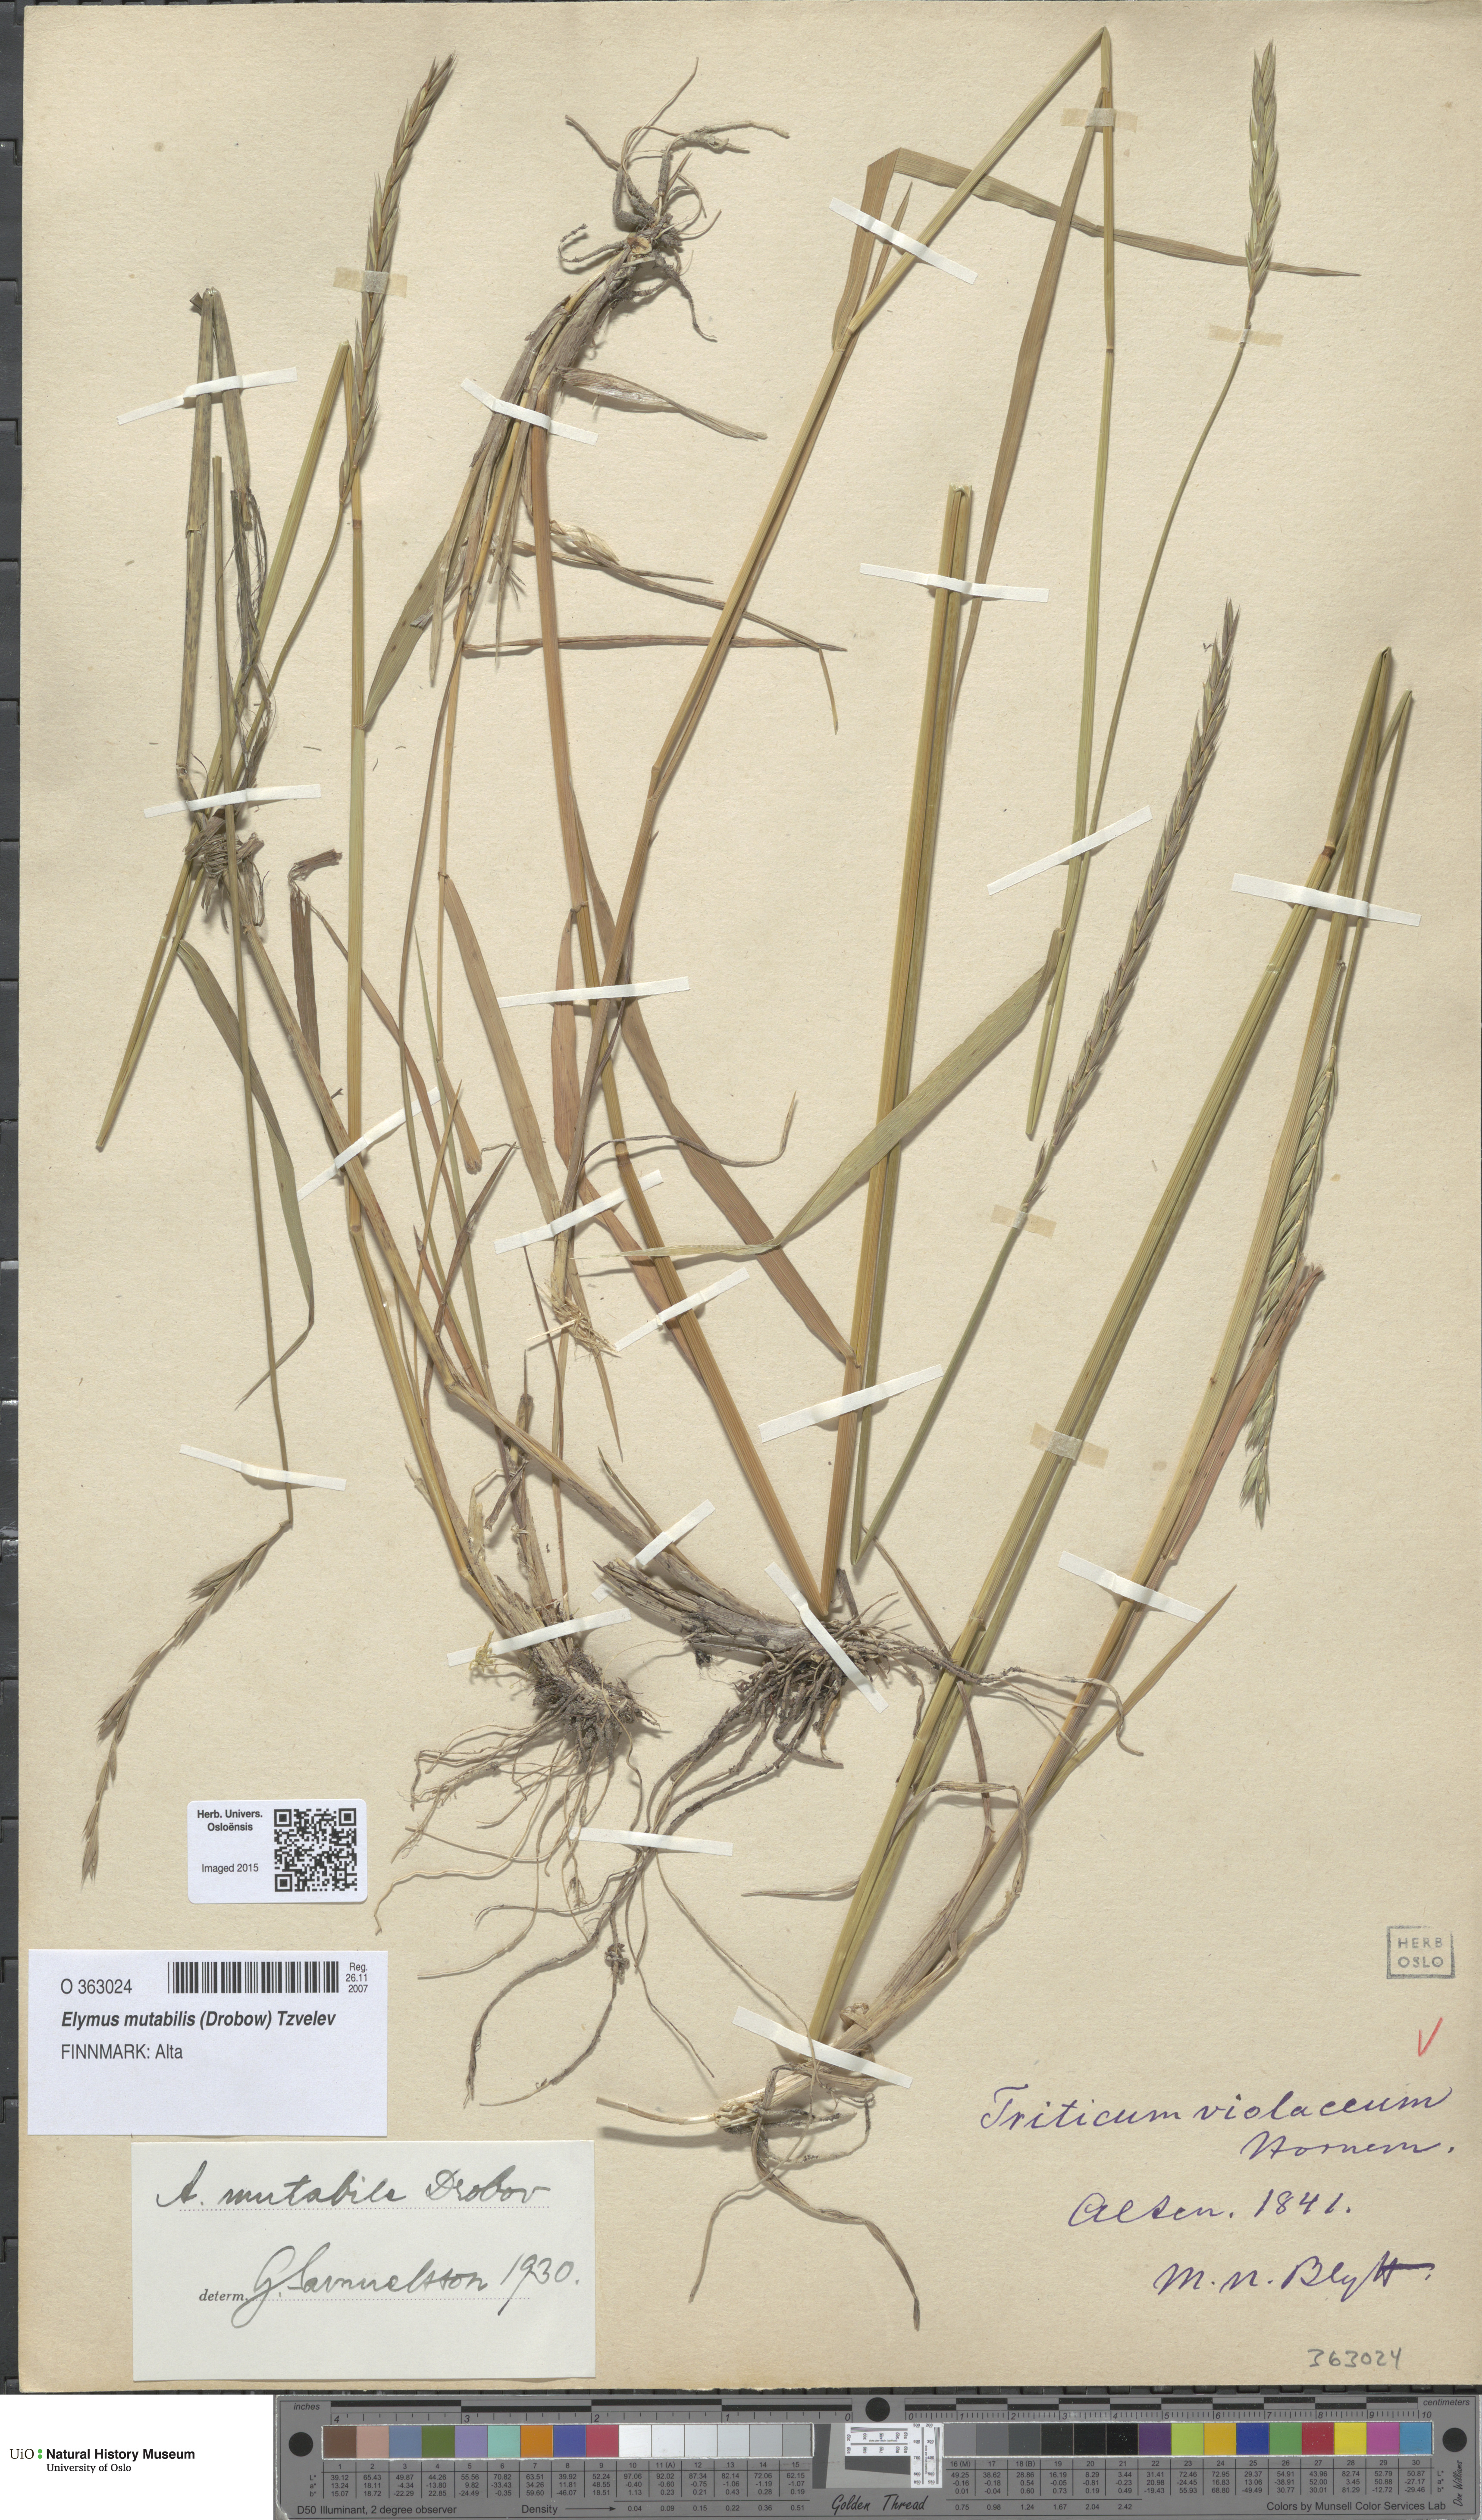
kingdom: Plantae
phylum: Tracheophyta
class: Liliopsida
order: Poales
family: Poaceae
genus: Elymus
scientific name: Elymus mutabilis
